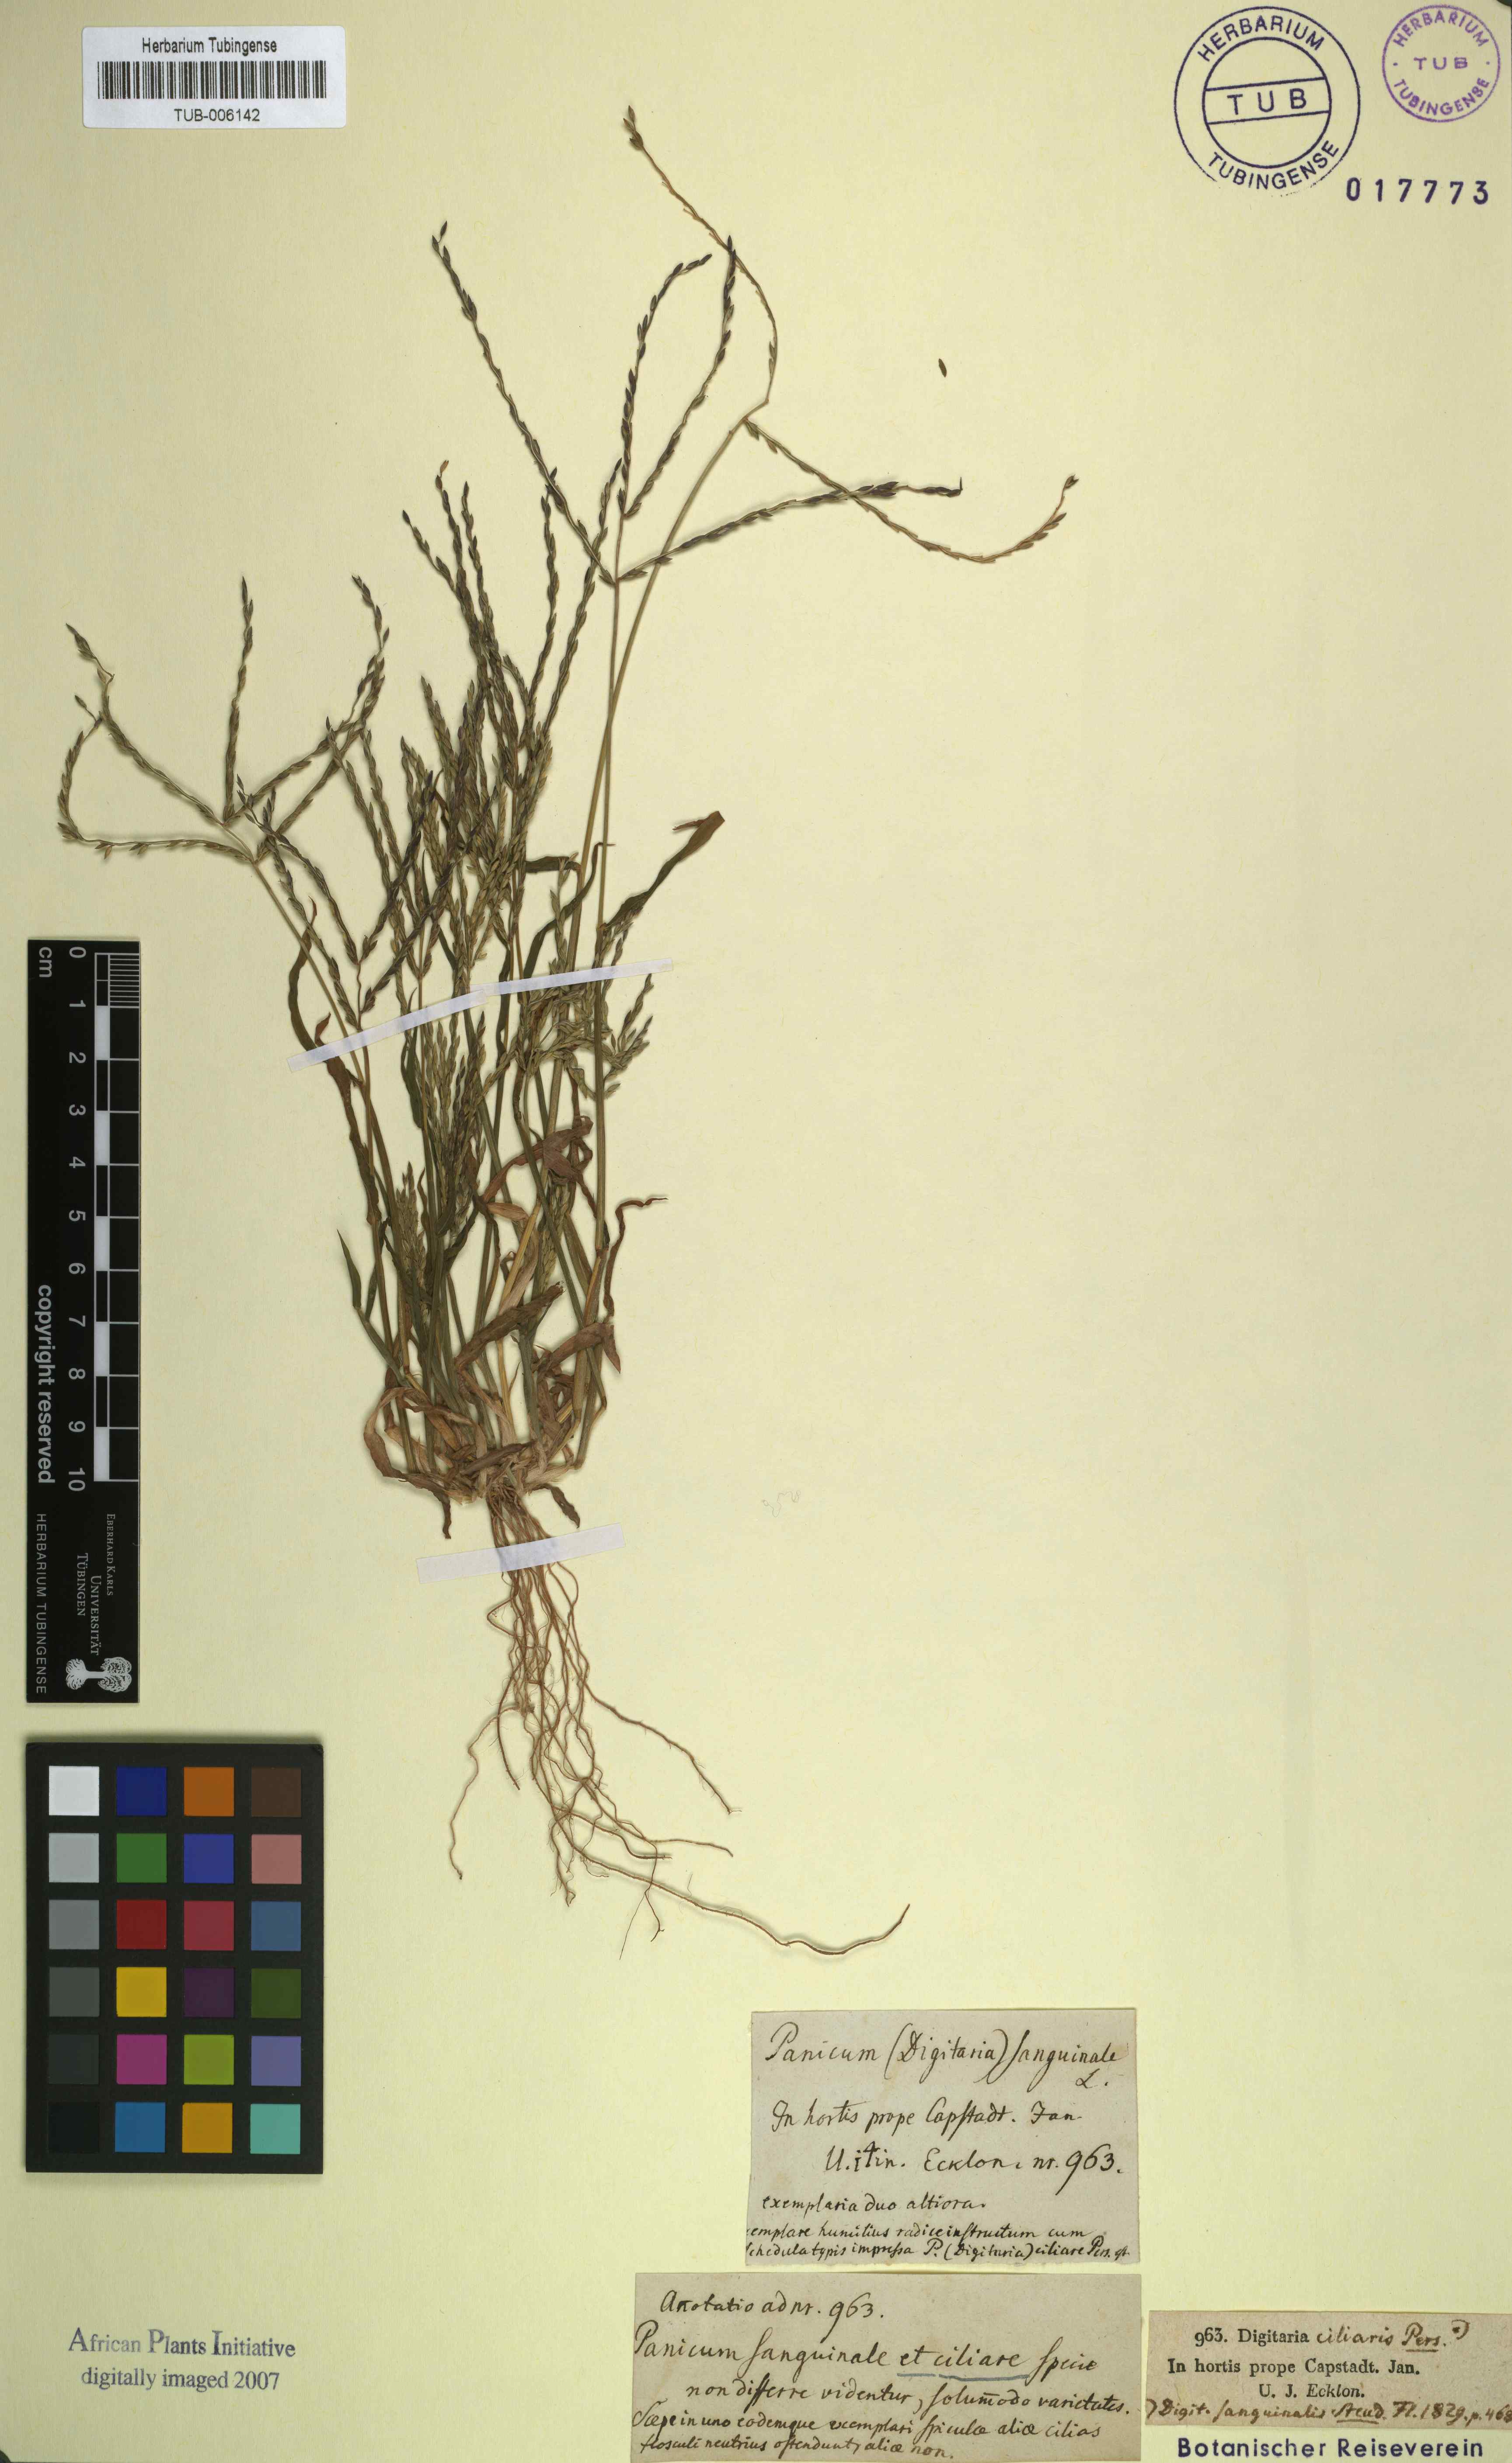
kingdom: Plantae
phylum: Tracheophyta
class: Liliopsida
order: Poales
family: Poaceae
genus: Digitaria
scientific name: Digitaria sanguinalis
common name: Hairy crabgrass
